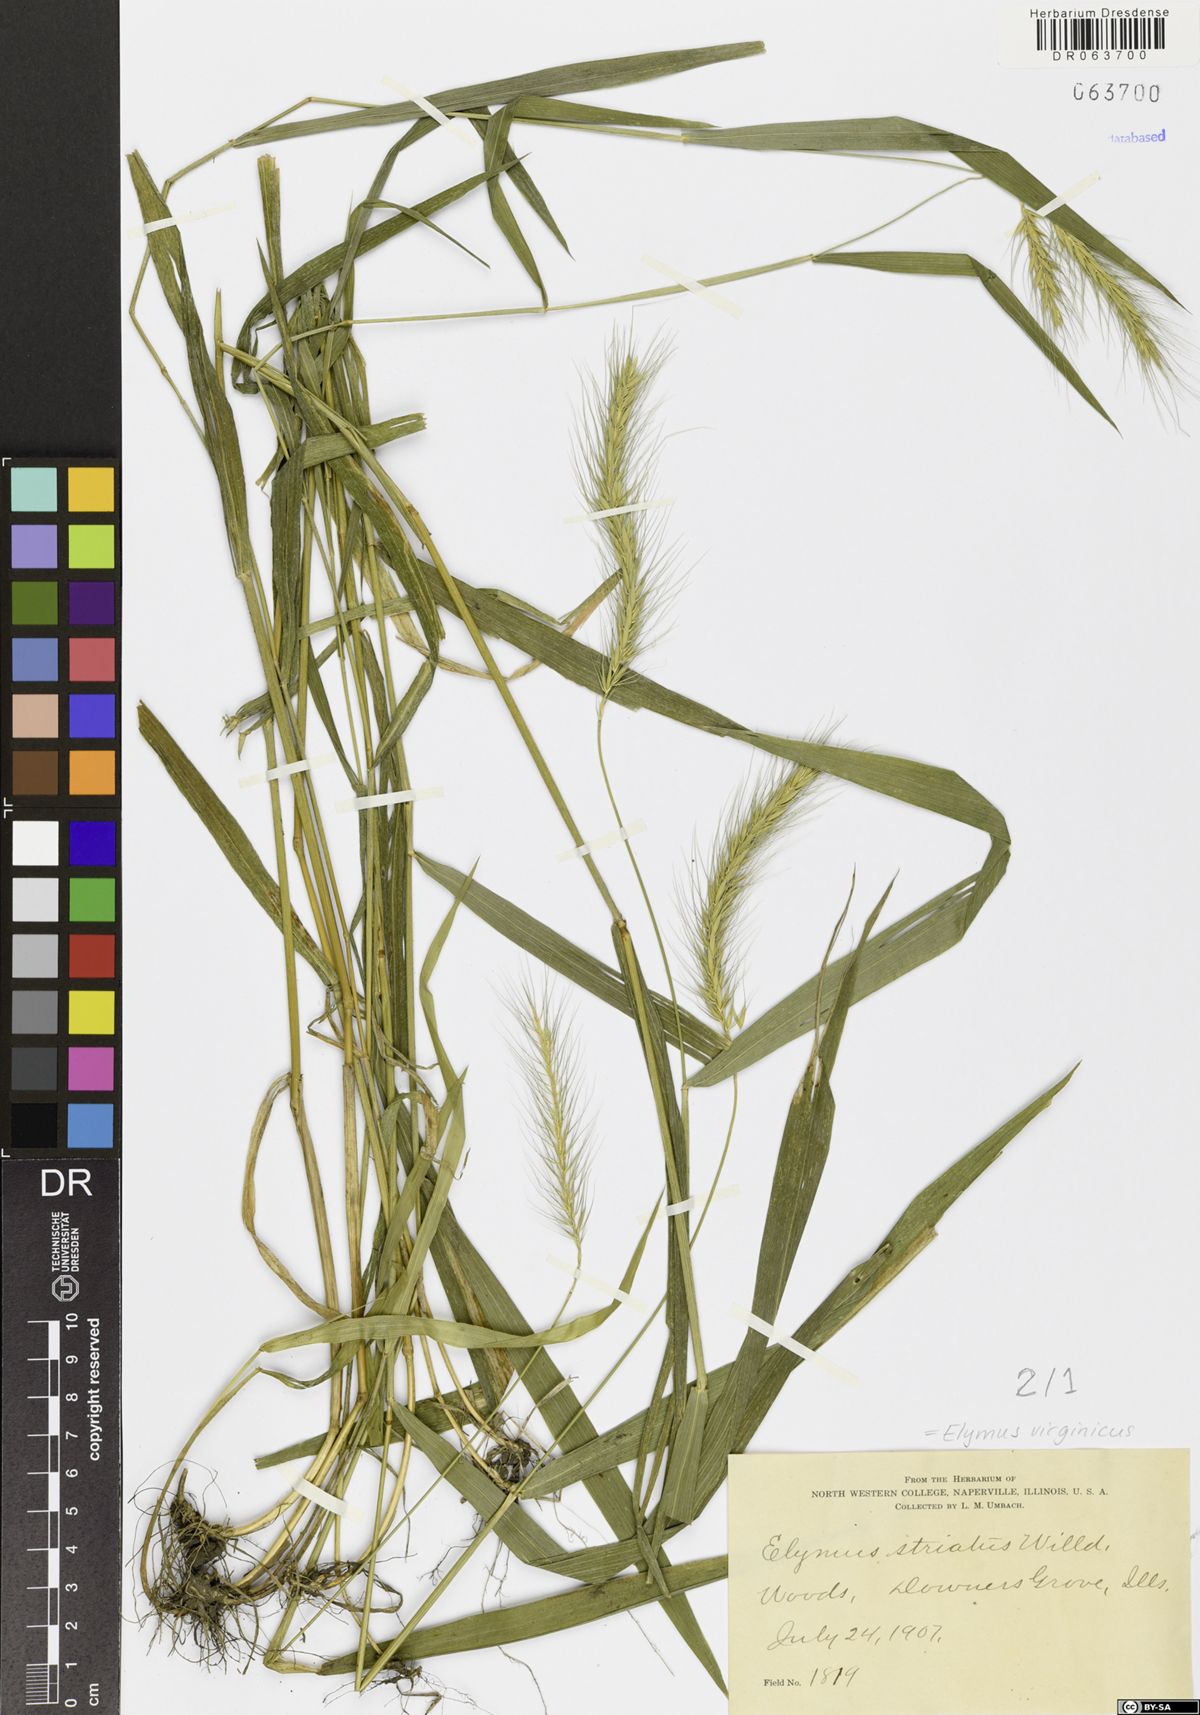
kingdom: Plantae
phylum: Tracheophyta
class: Liliopsida
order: Poales
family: Poaceae
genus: Elymus
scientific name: Elymus virginicus
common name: Common eastern wildrye
